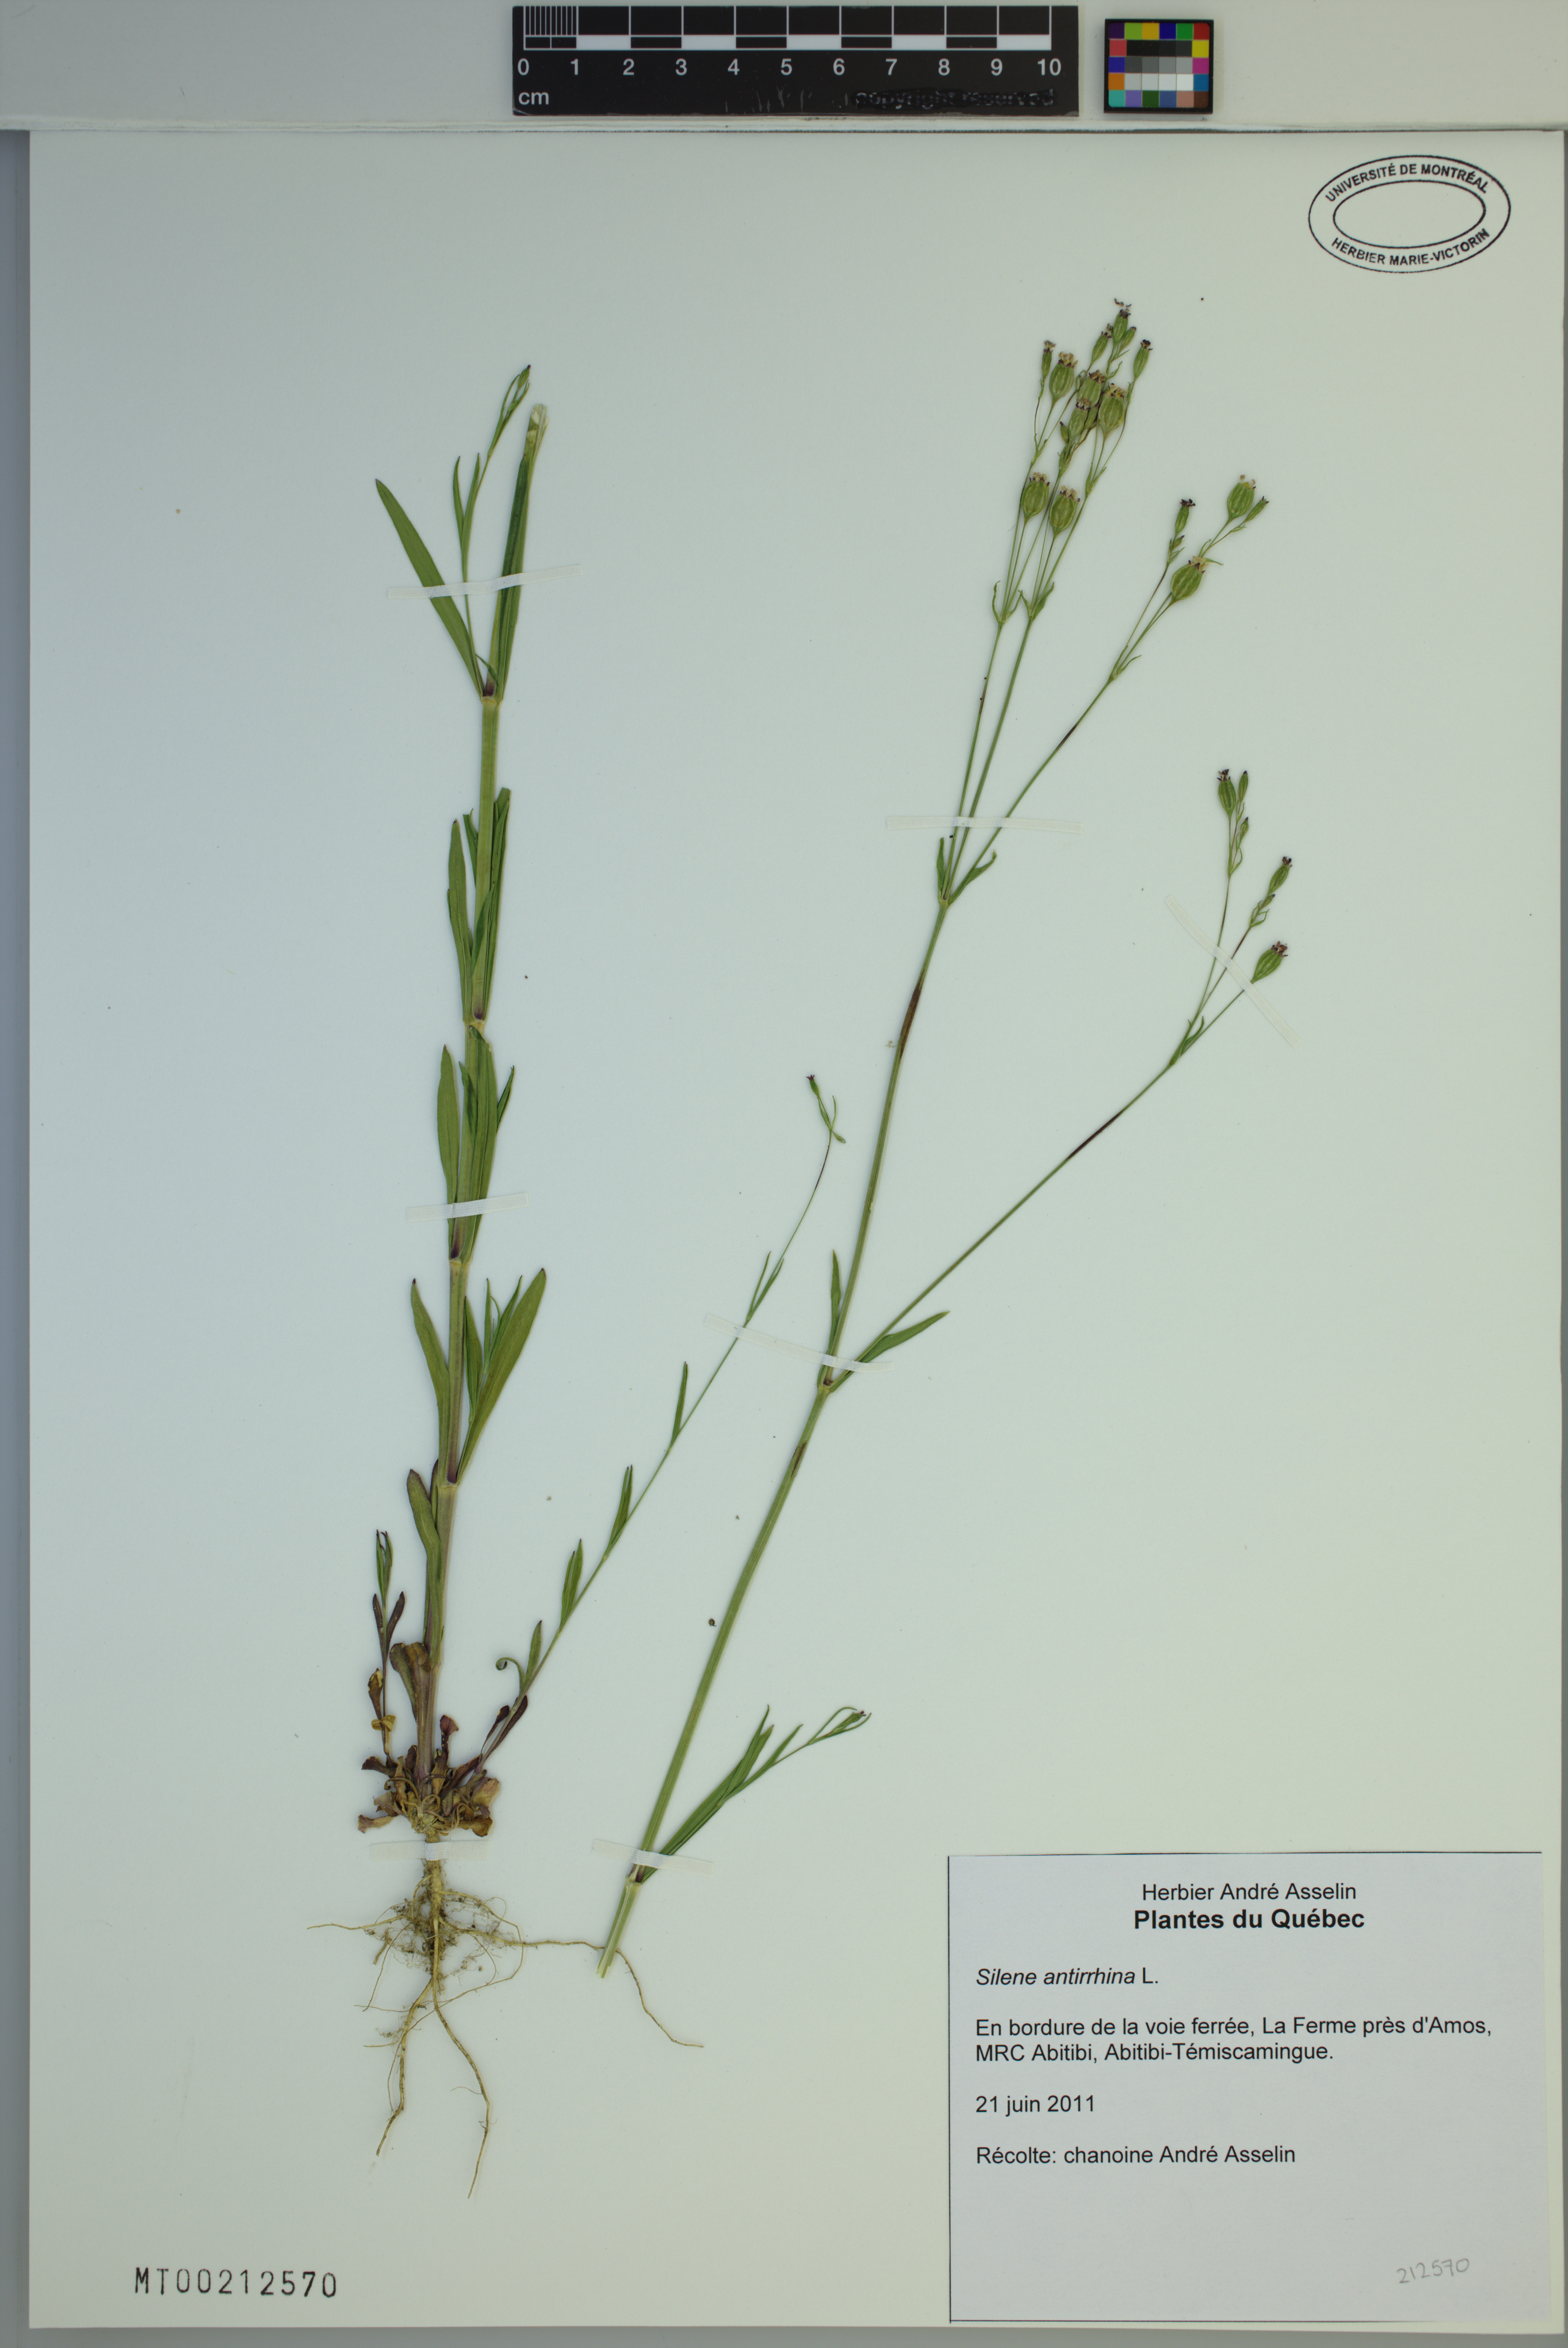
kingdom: Plantae
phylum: Tracheophyta
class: Magnoliopsida
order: Caryophyllales
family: Caryophyllaceae
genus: Silene
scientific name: Silene antirrhina
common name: Sleepy catchfly
